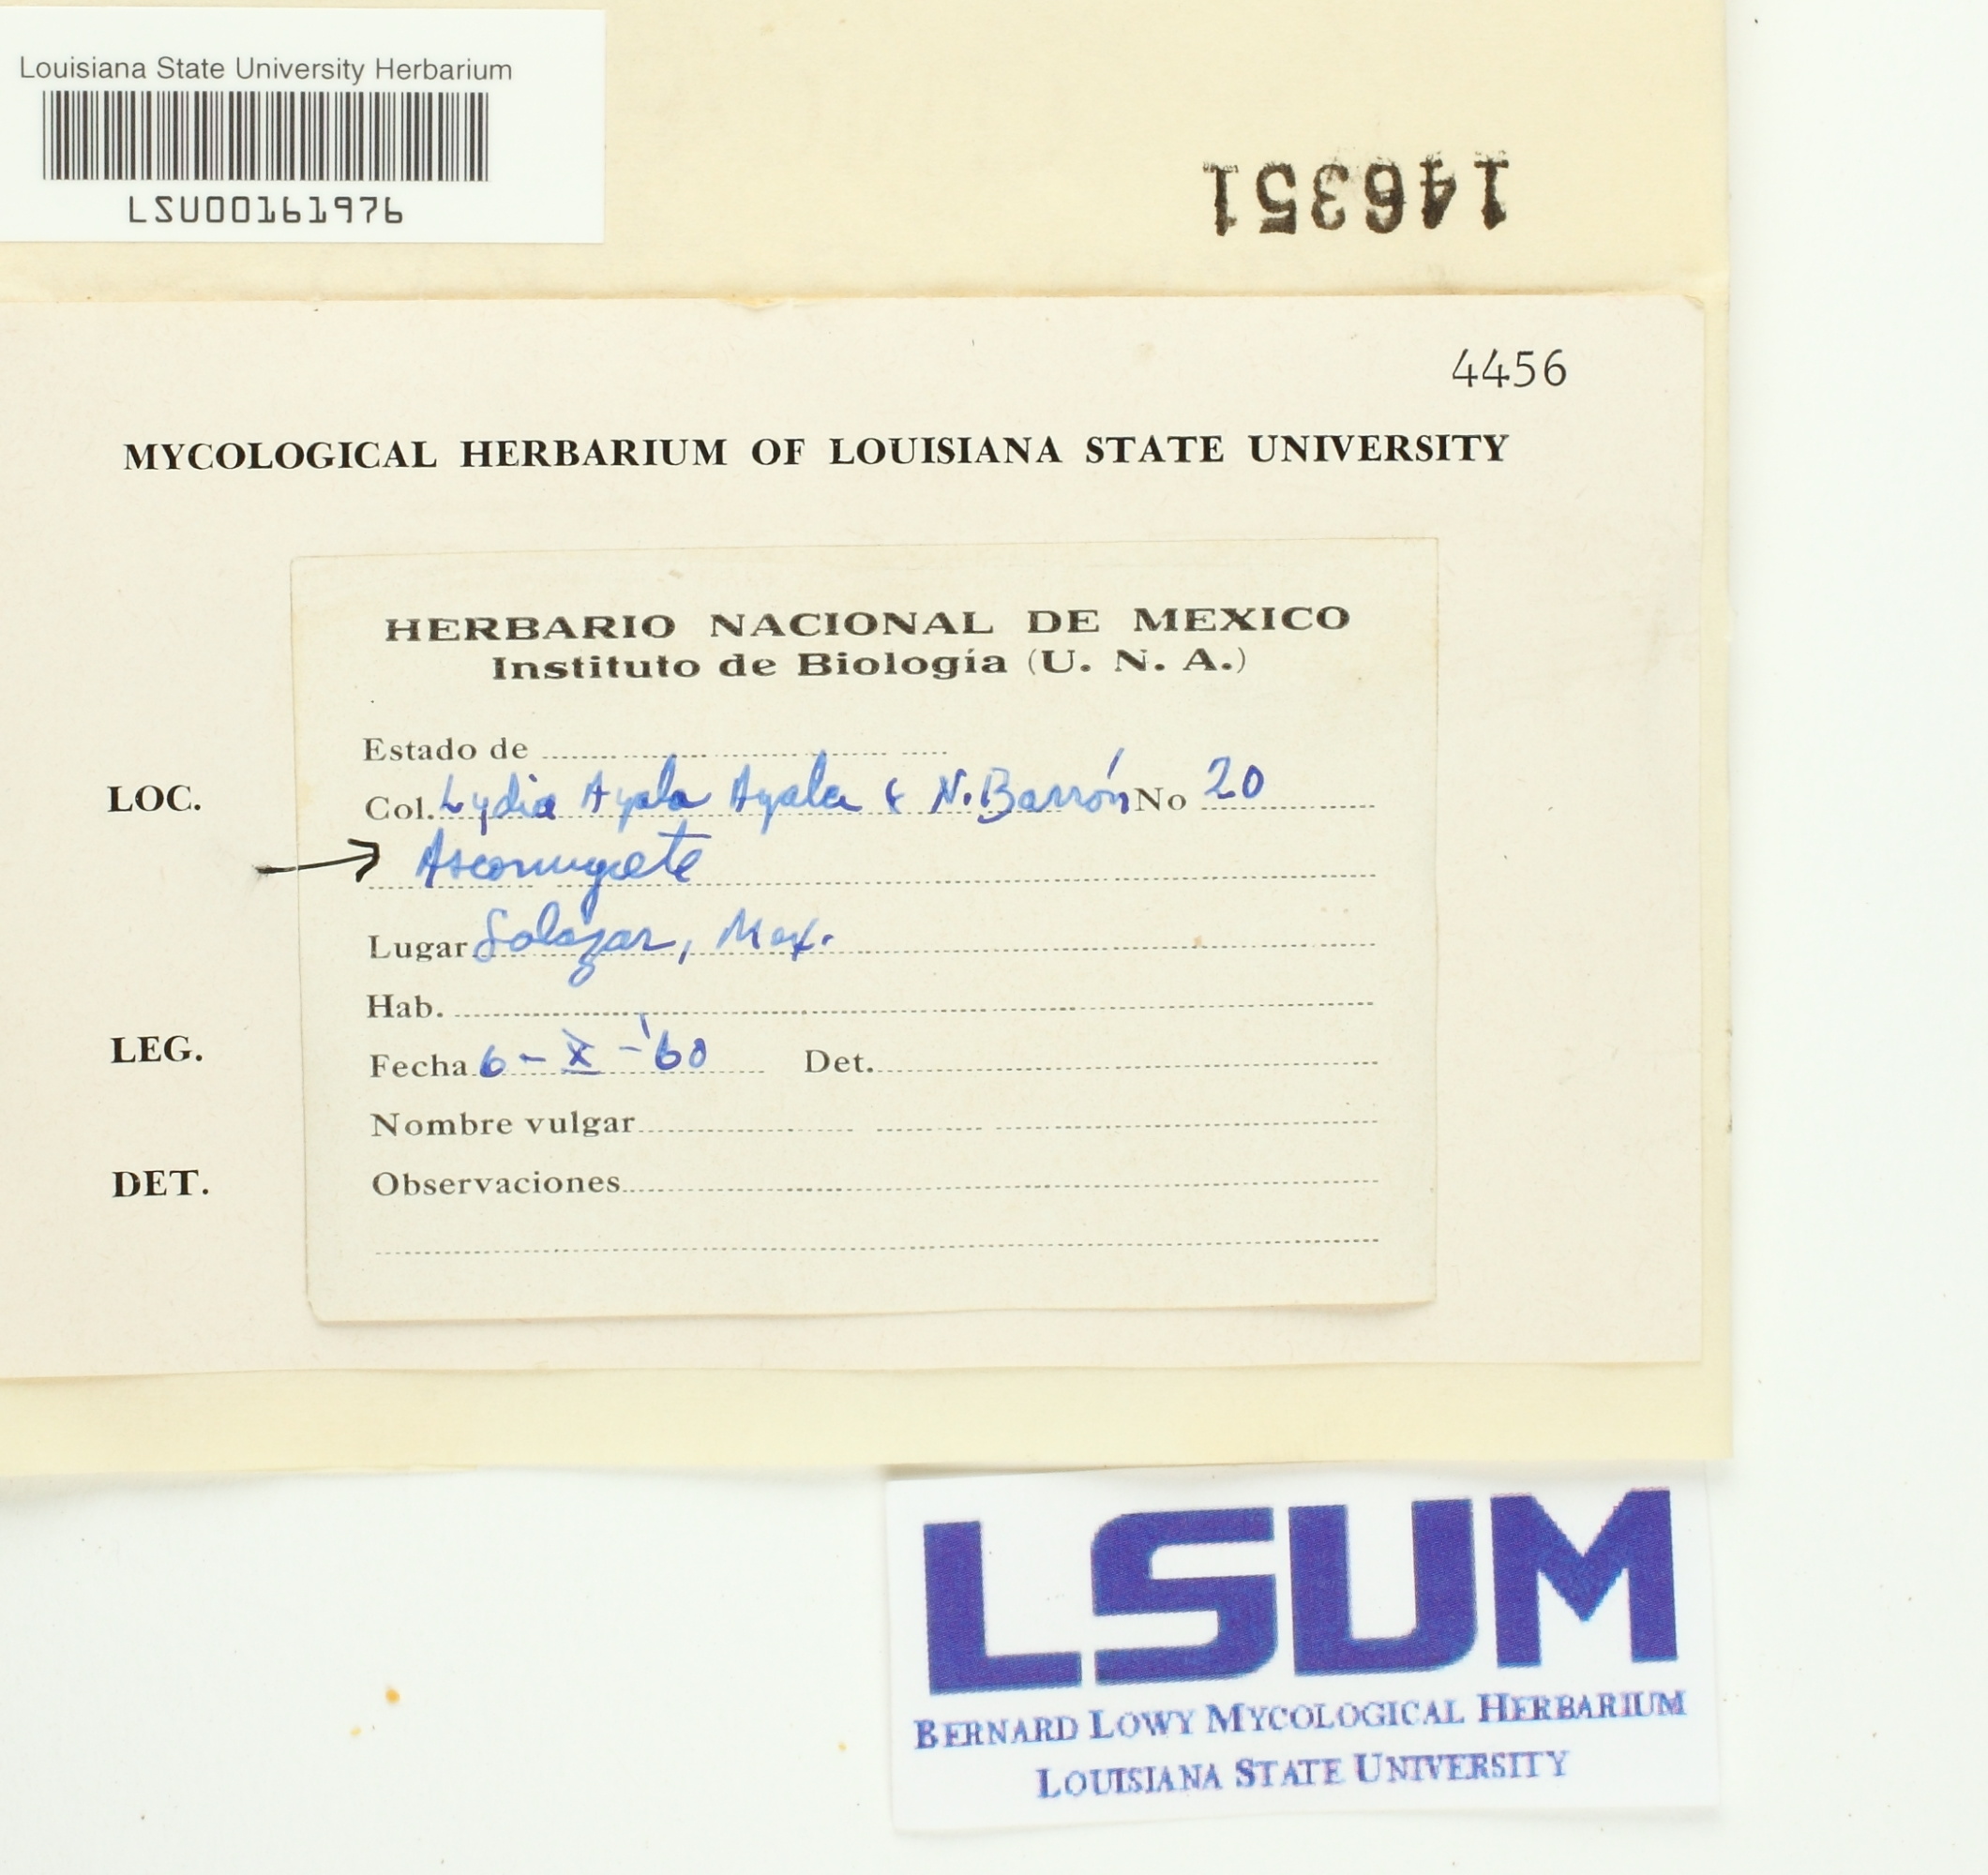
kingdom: Fungi
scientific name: Fungi
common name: Fungi
